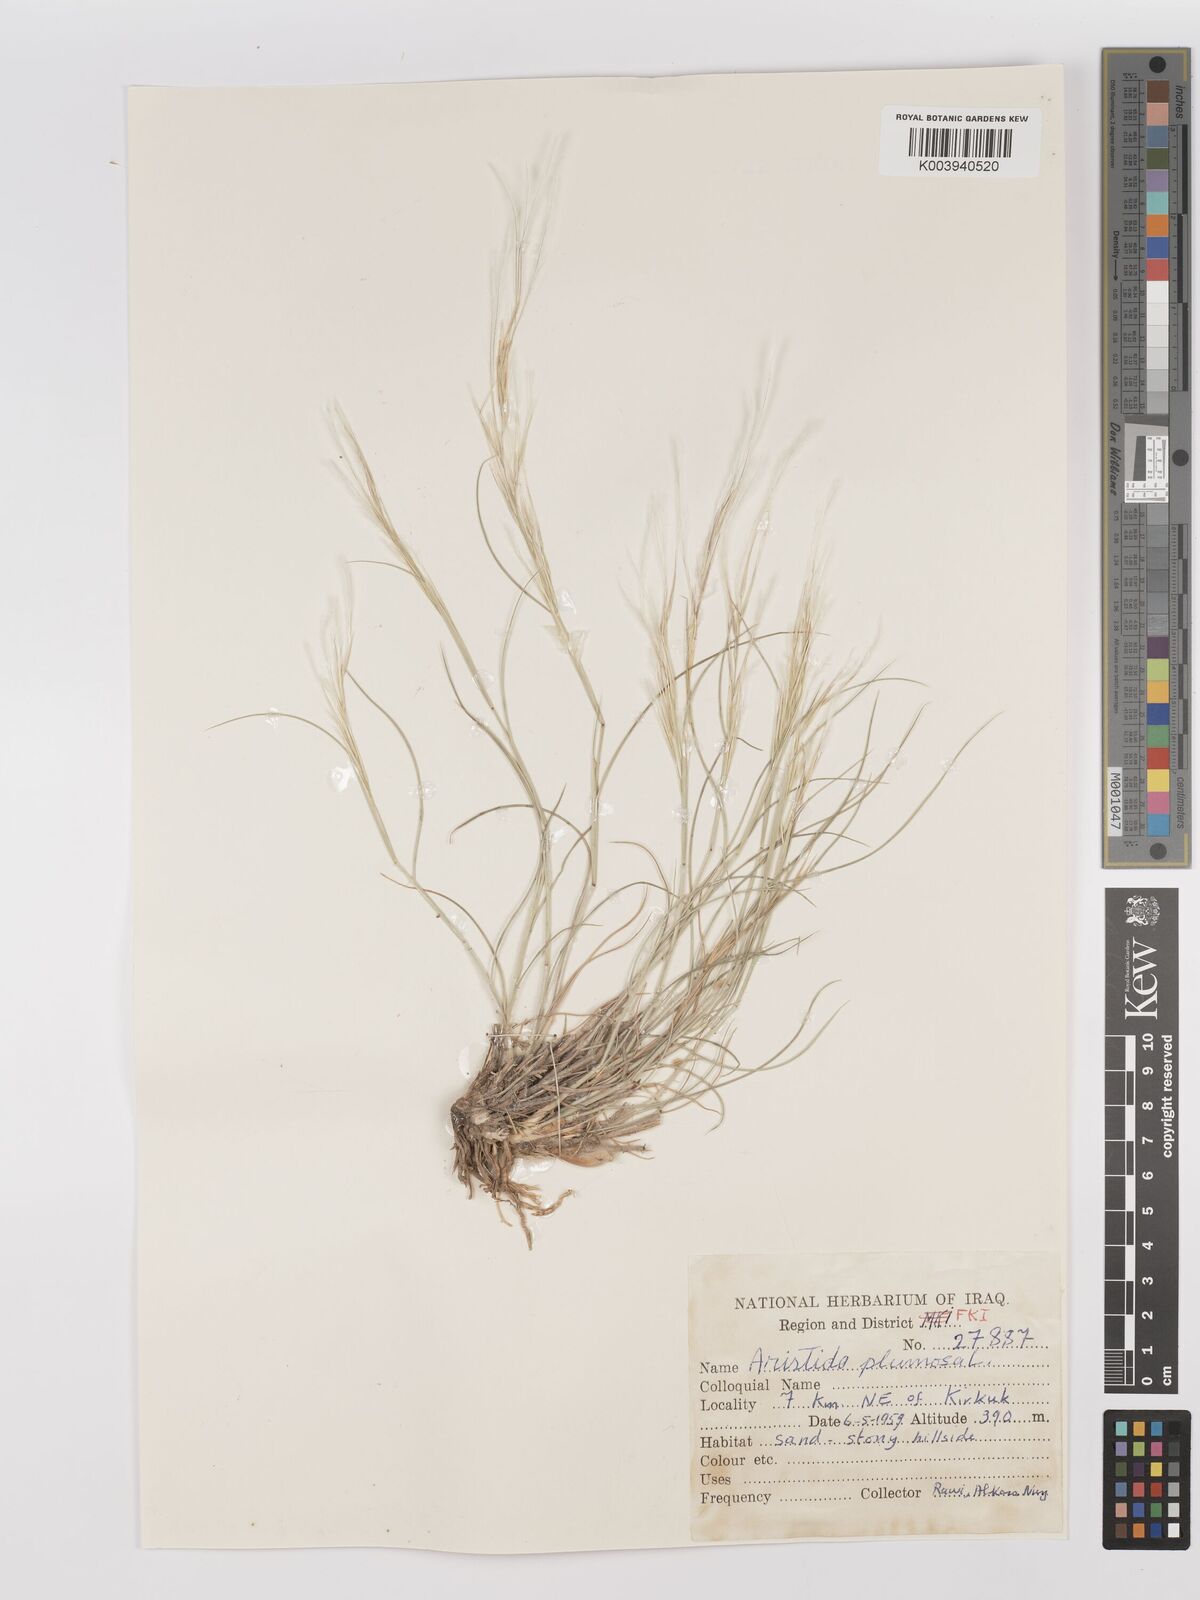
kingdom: Plantae
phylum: Tracheophyta
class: Liliopsida
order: Poales
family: Poaceae
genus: Stipagrostis
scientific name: Stipagrostis plumosa
